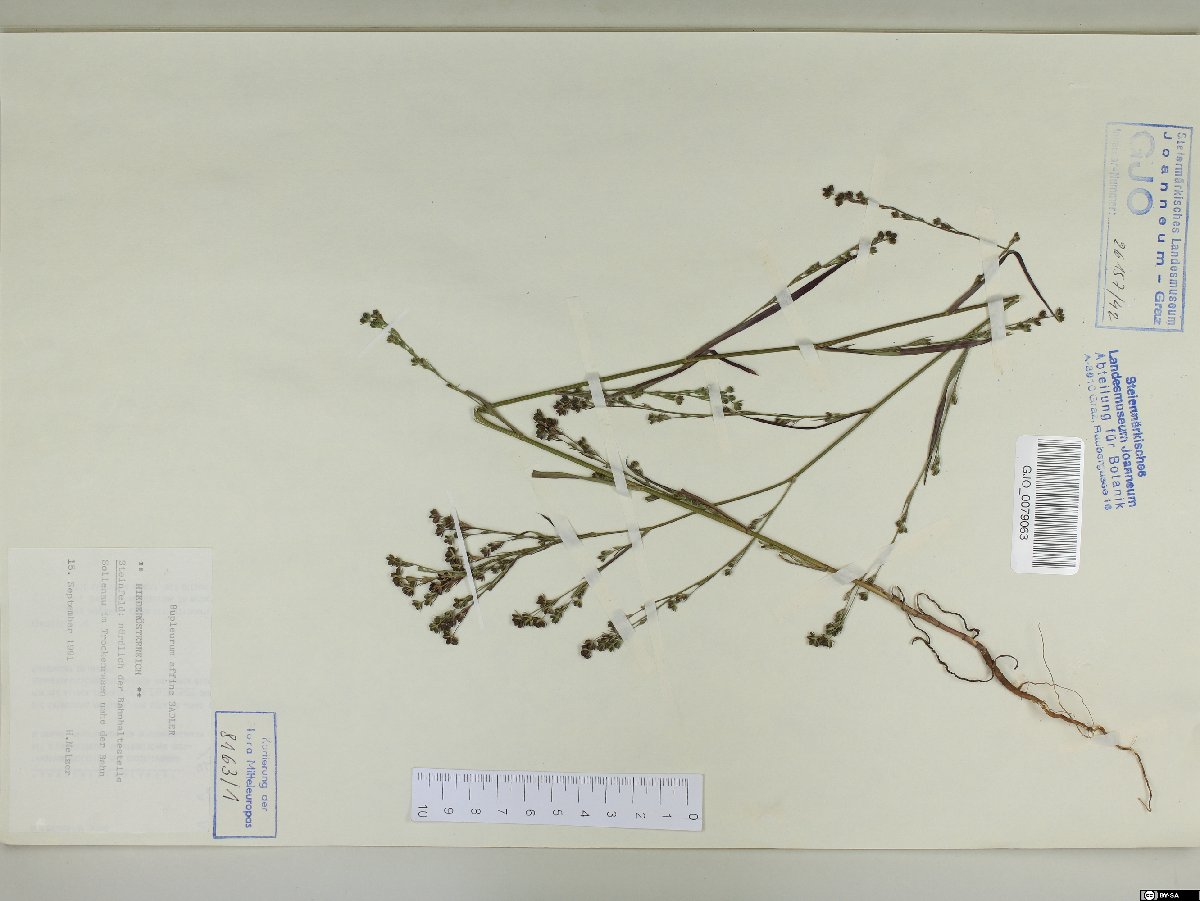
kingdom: Plantae
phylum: Tracheophyta
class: Magnoliopsida
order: Apiales
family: Apiaceae
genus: Bupleurum
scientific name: Bupleurum affine
